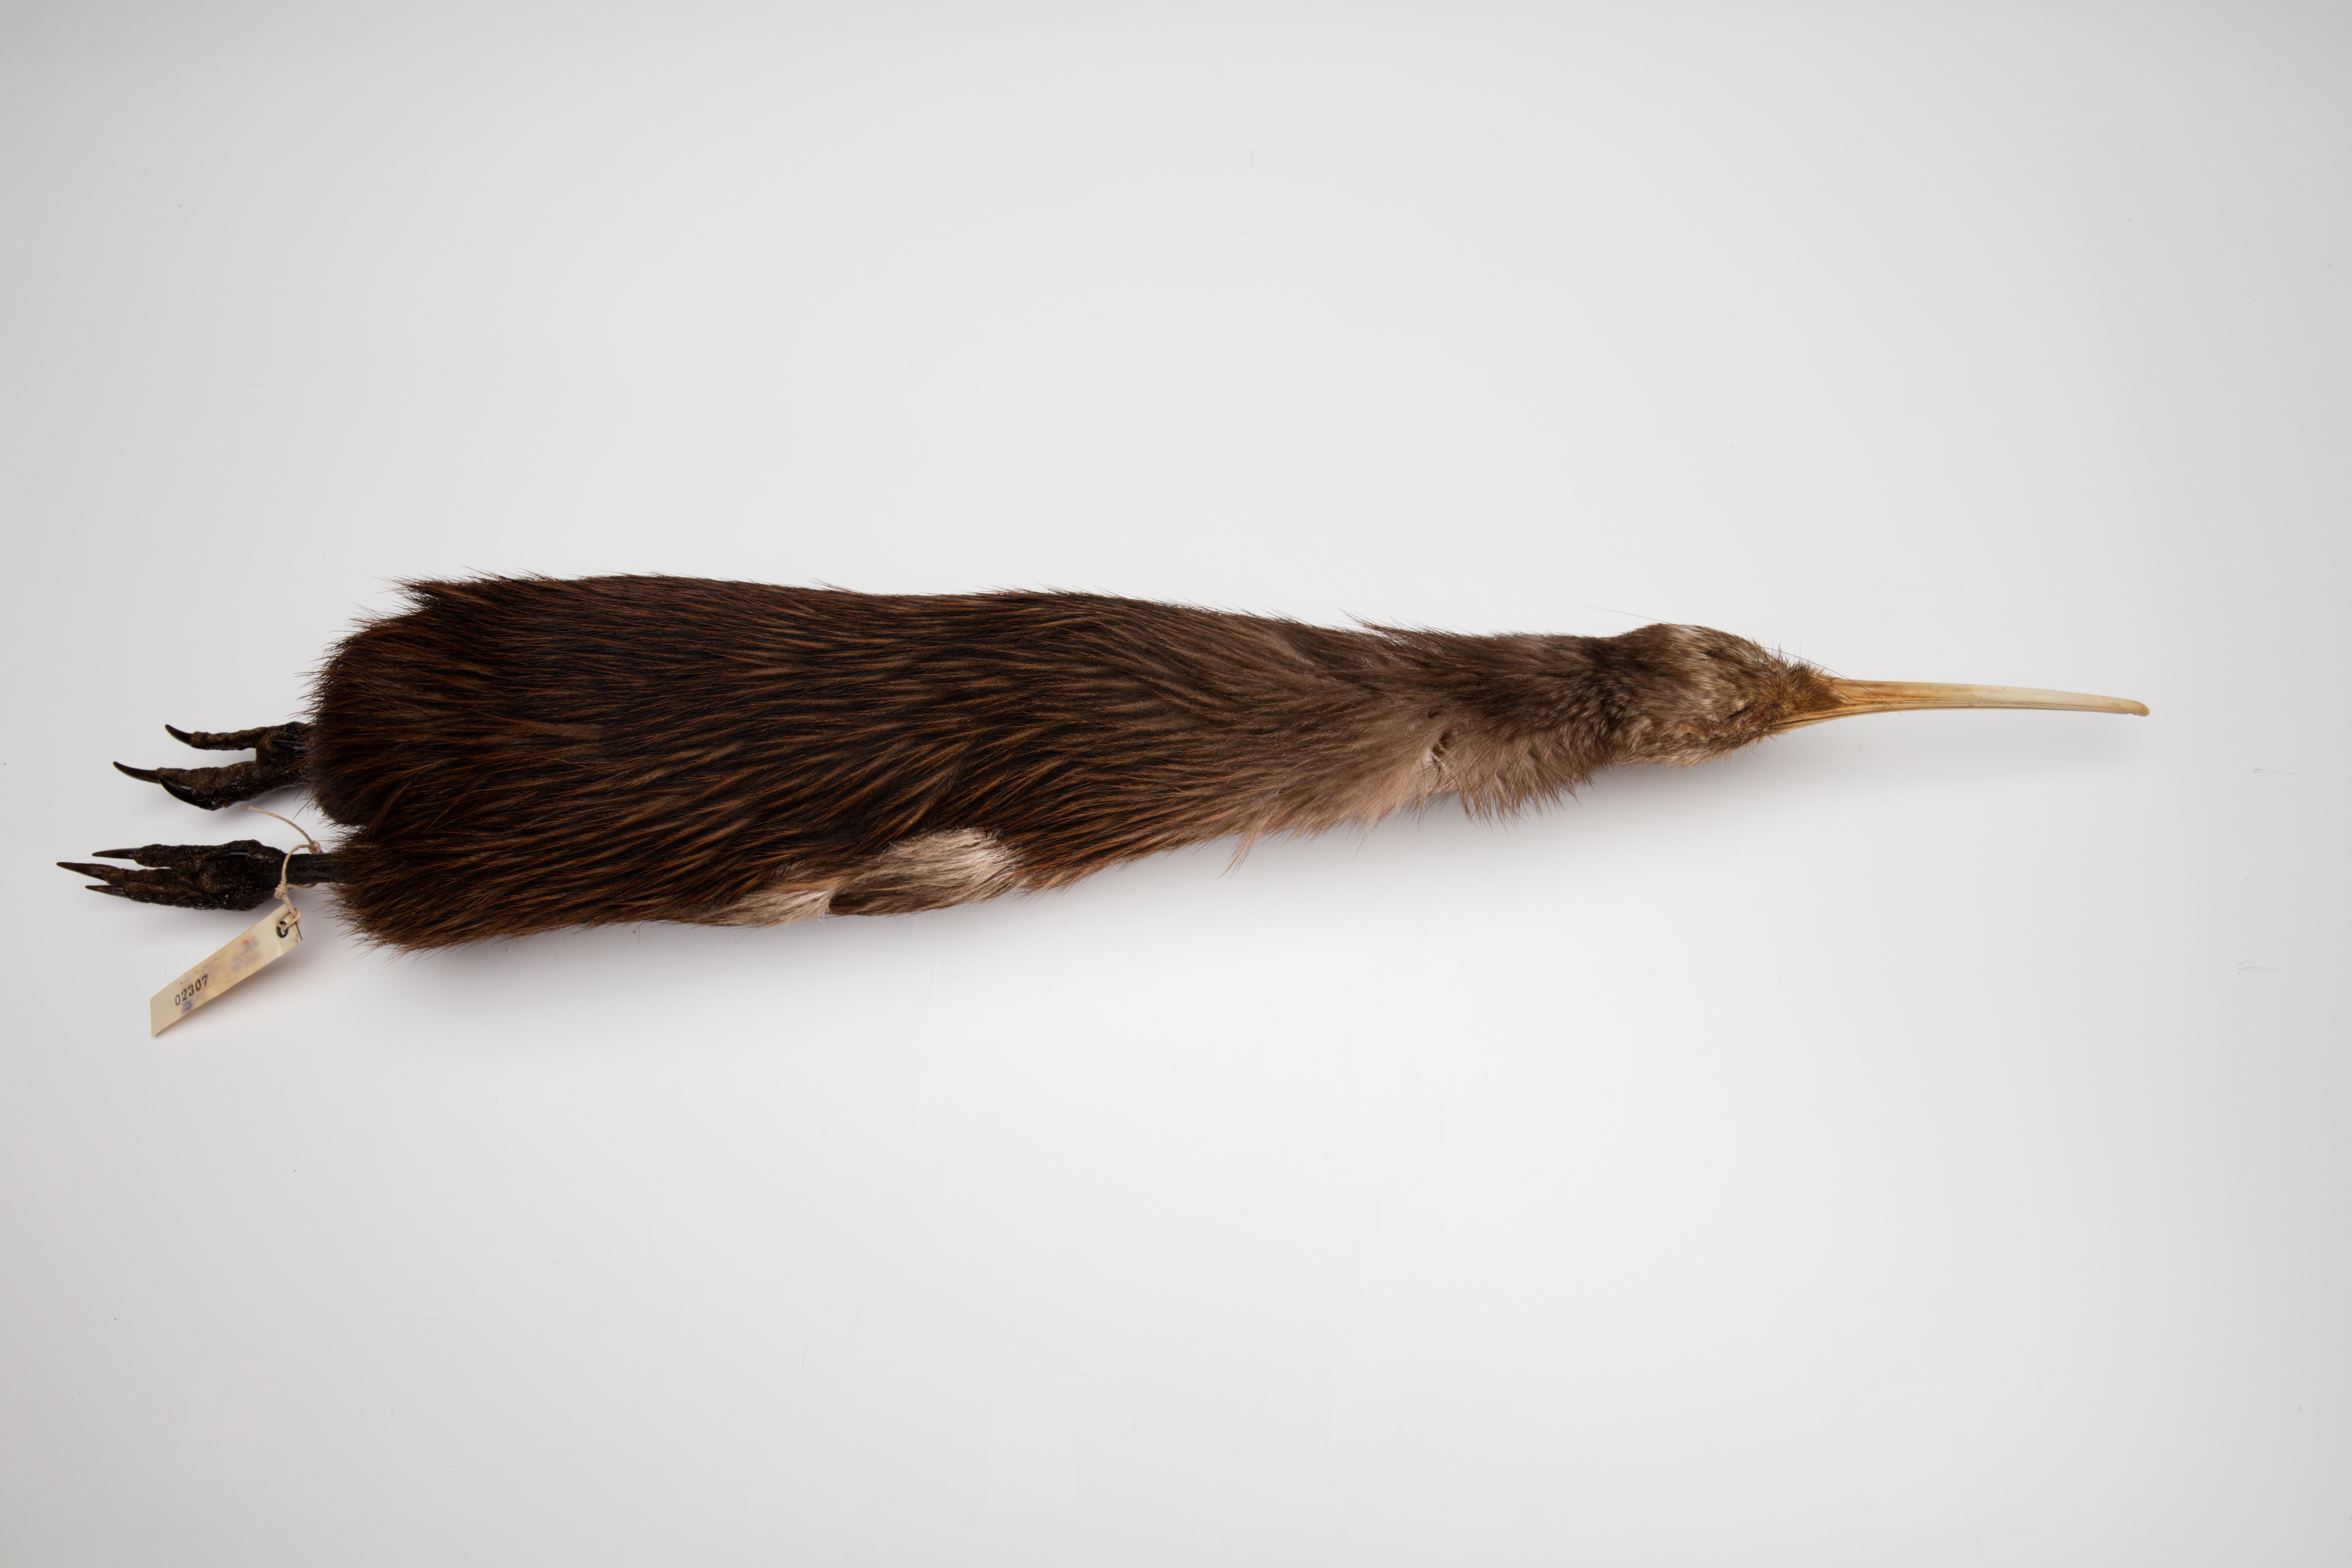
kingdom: Animalia
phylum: Chordata
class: Aves
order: Apterygiformes
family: Apterygidae
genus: Apteryx
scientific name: Apteryx mantelli
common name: North island brown kiwi
